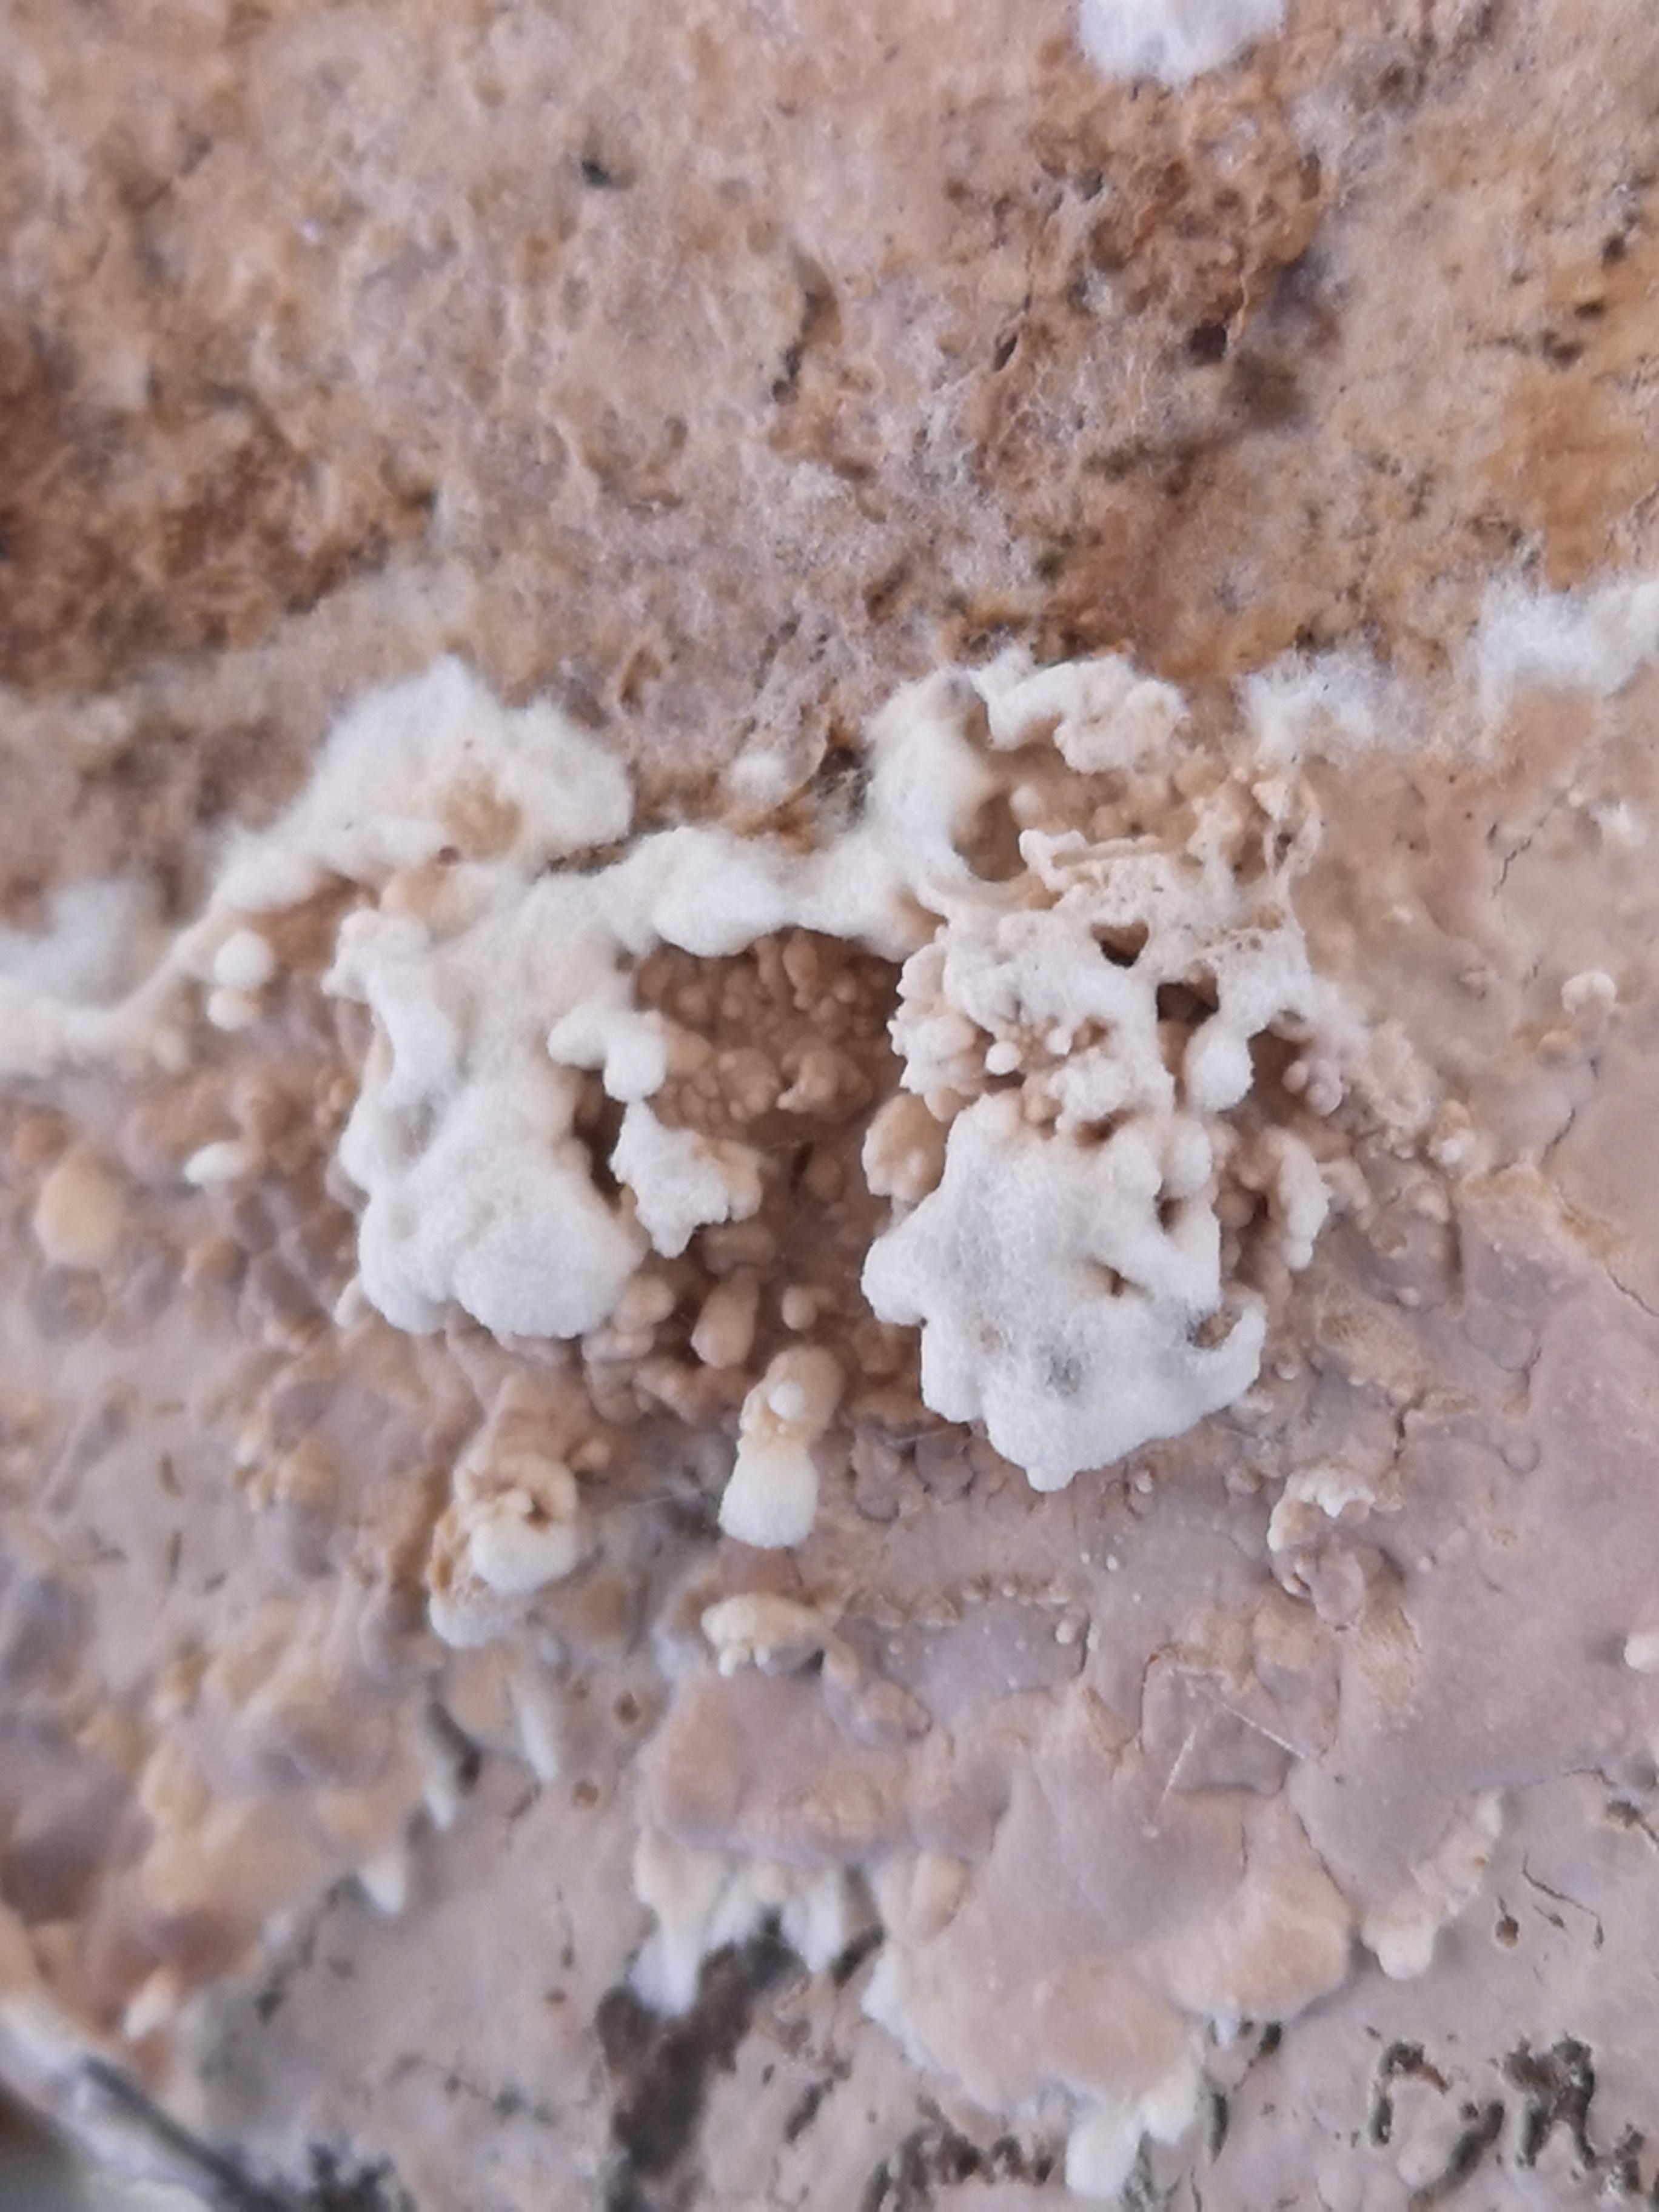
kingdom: Fungi
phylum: Basidiomycota
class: Agaricomycetes
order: Agaricales
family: Physalacriaceae
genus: Cylindrobasidium
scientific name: Cylindrobasidium evolvens
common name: sprækkehinde
